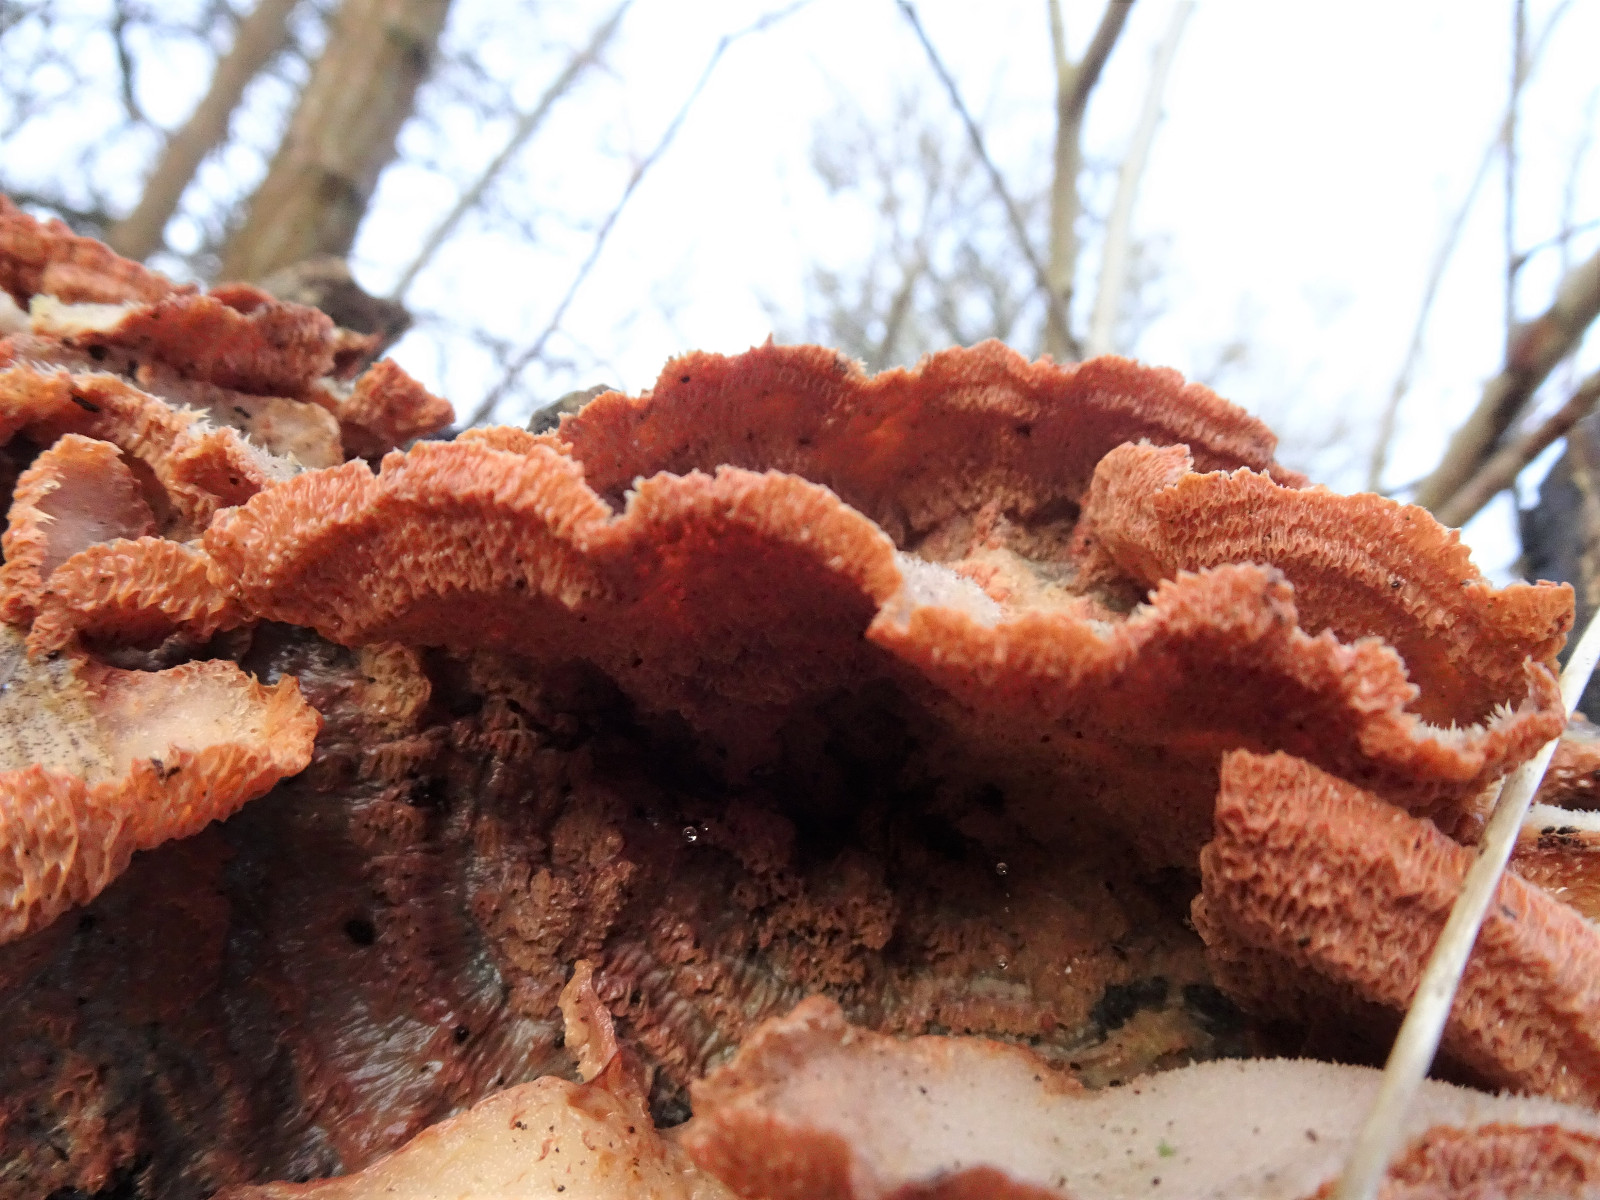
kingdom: Fungi
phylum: Basidiomycota
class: Agaricomycetes
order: Polyporales
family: Meruliaceae
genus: Phlebia
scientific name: Phlebia tremellosa
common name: bævrende åresvamp
